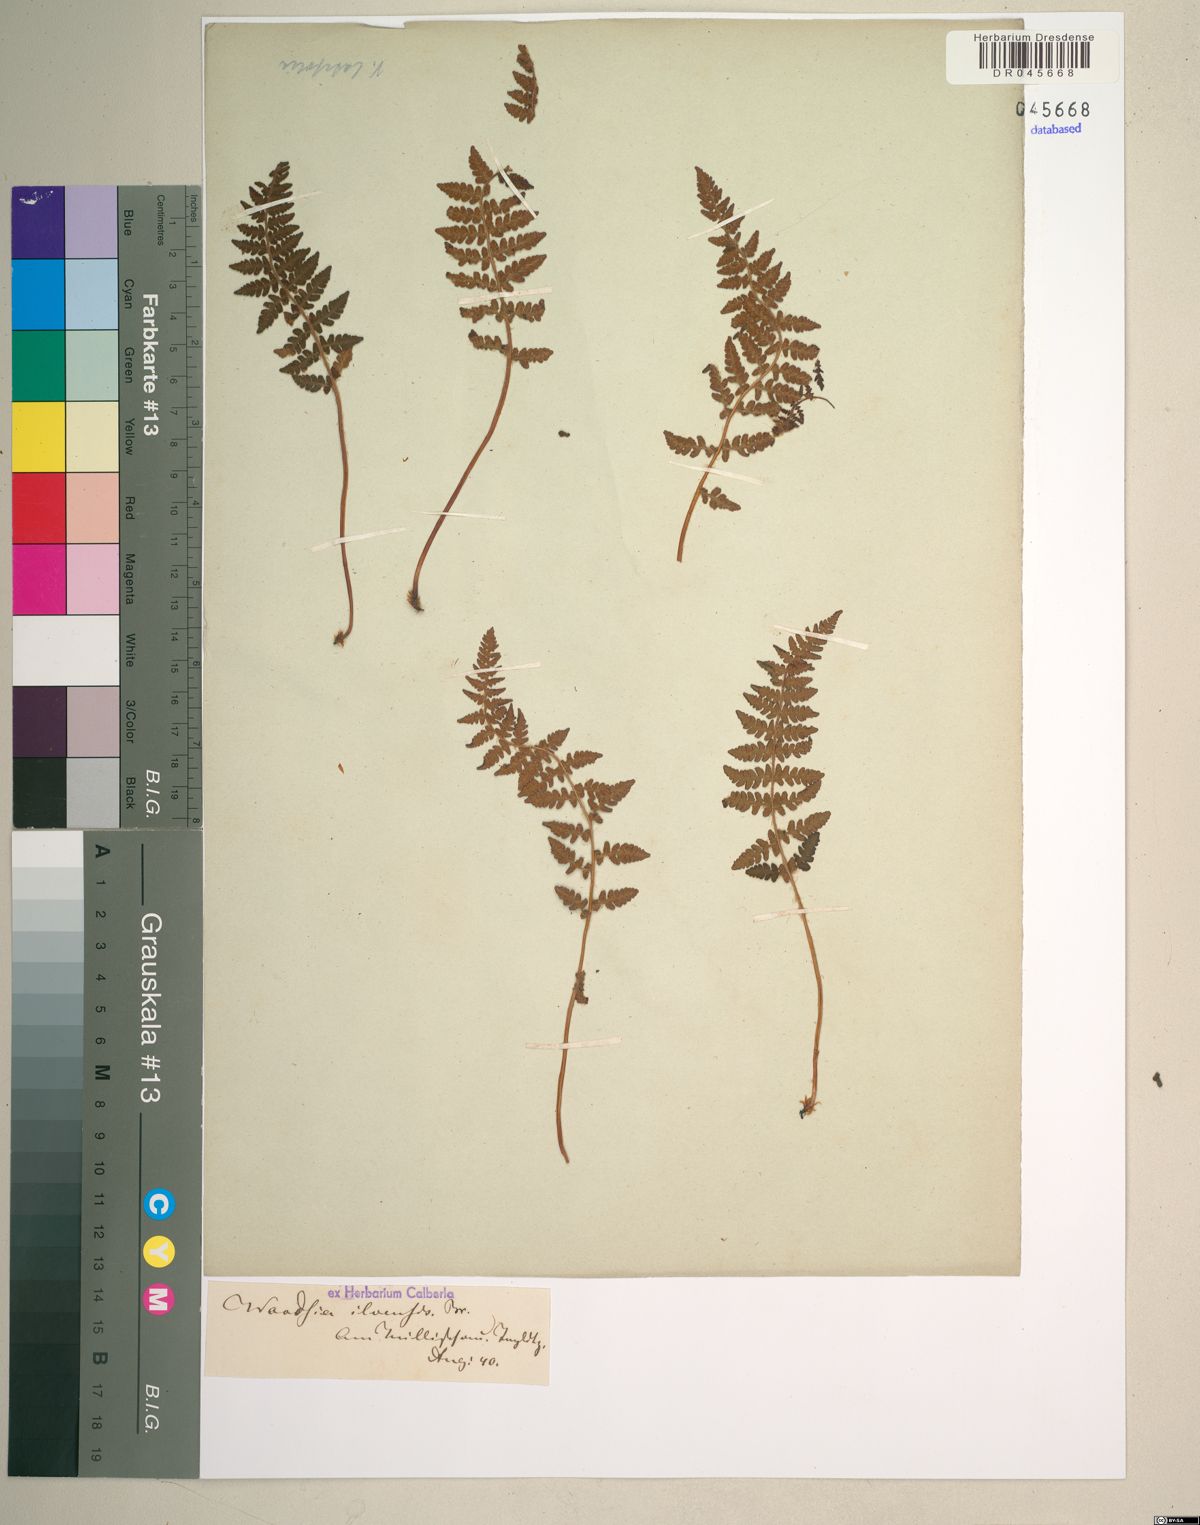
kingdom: Plantae
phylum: Tracheophyta
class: Polypodiopsida
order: Polypodiales
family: Woodsiaceae
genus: Woodsia
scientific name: Woodsia ilvensis
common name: Fragrant woodsia
